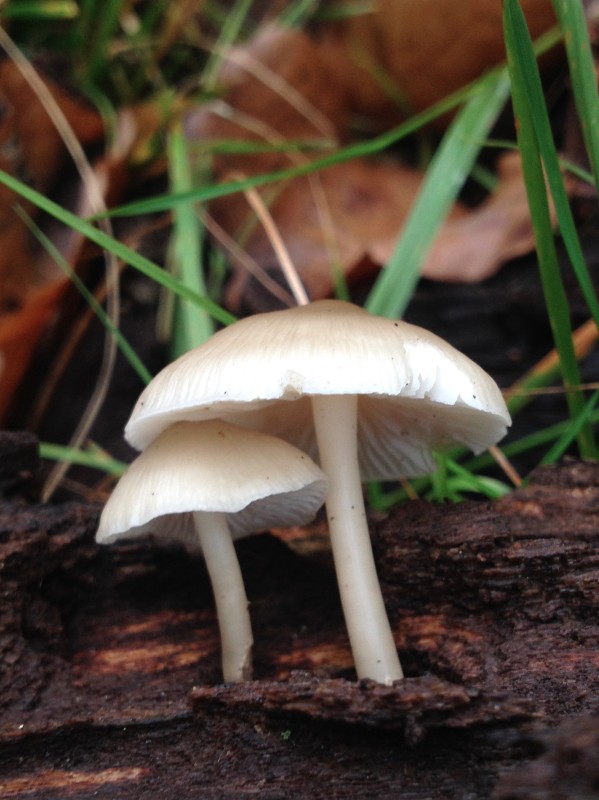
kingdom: Fungi
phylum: Basidiomycota
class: Agaricomycetes
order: Agaricales
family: Mycenaceae
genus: Mycena
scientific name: Mycena galericulata
